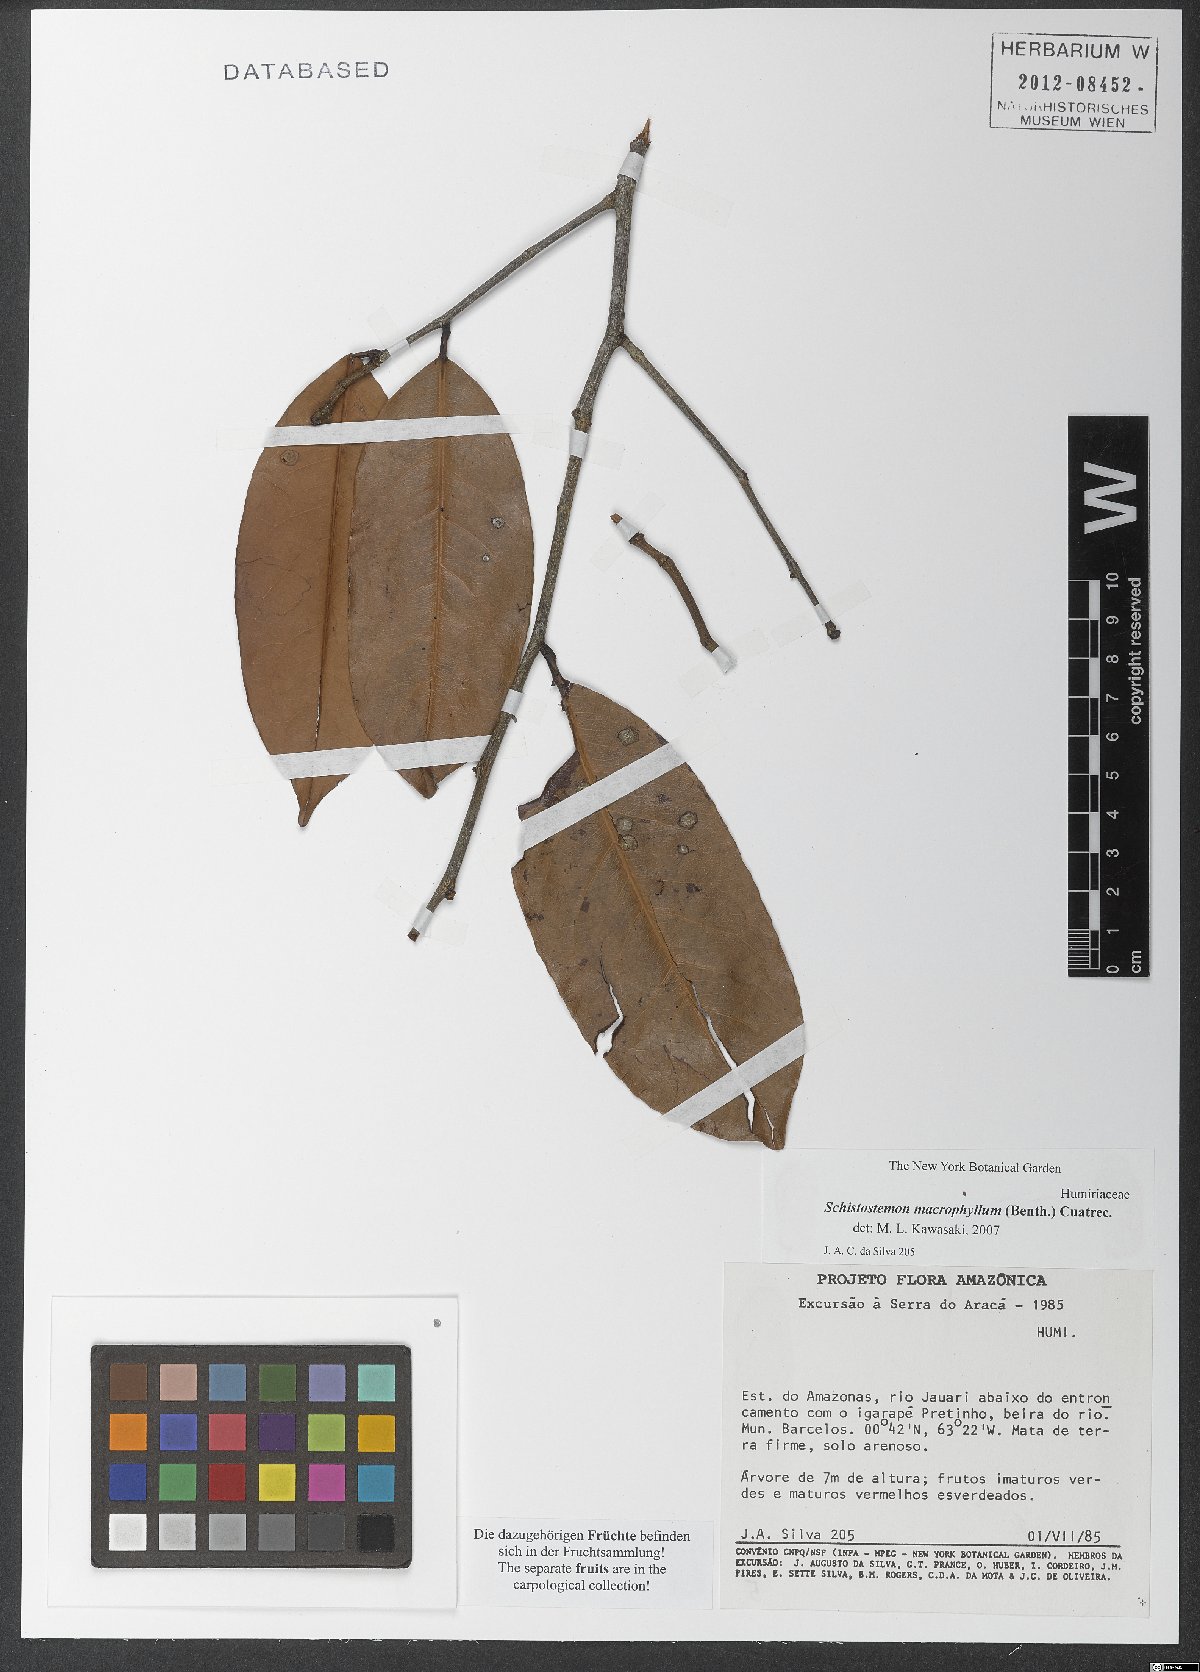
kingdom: Plantae
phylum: Tracheophyta
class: Magnoliopsida
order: Malpighiales
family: Humiriaceae
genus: Schistostemon
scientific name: Schistostemon macrophyllum
